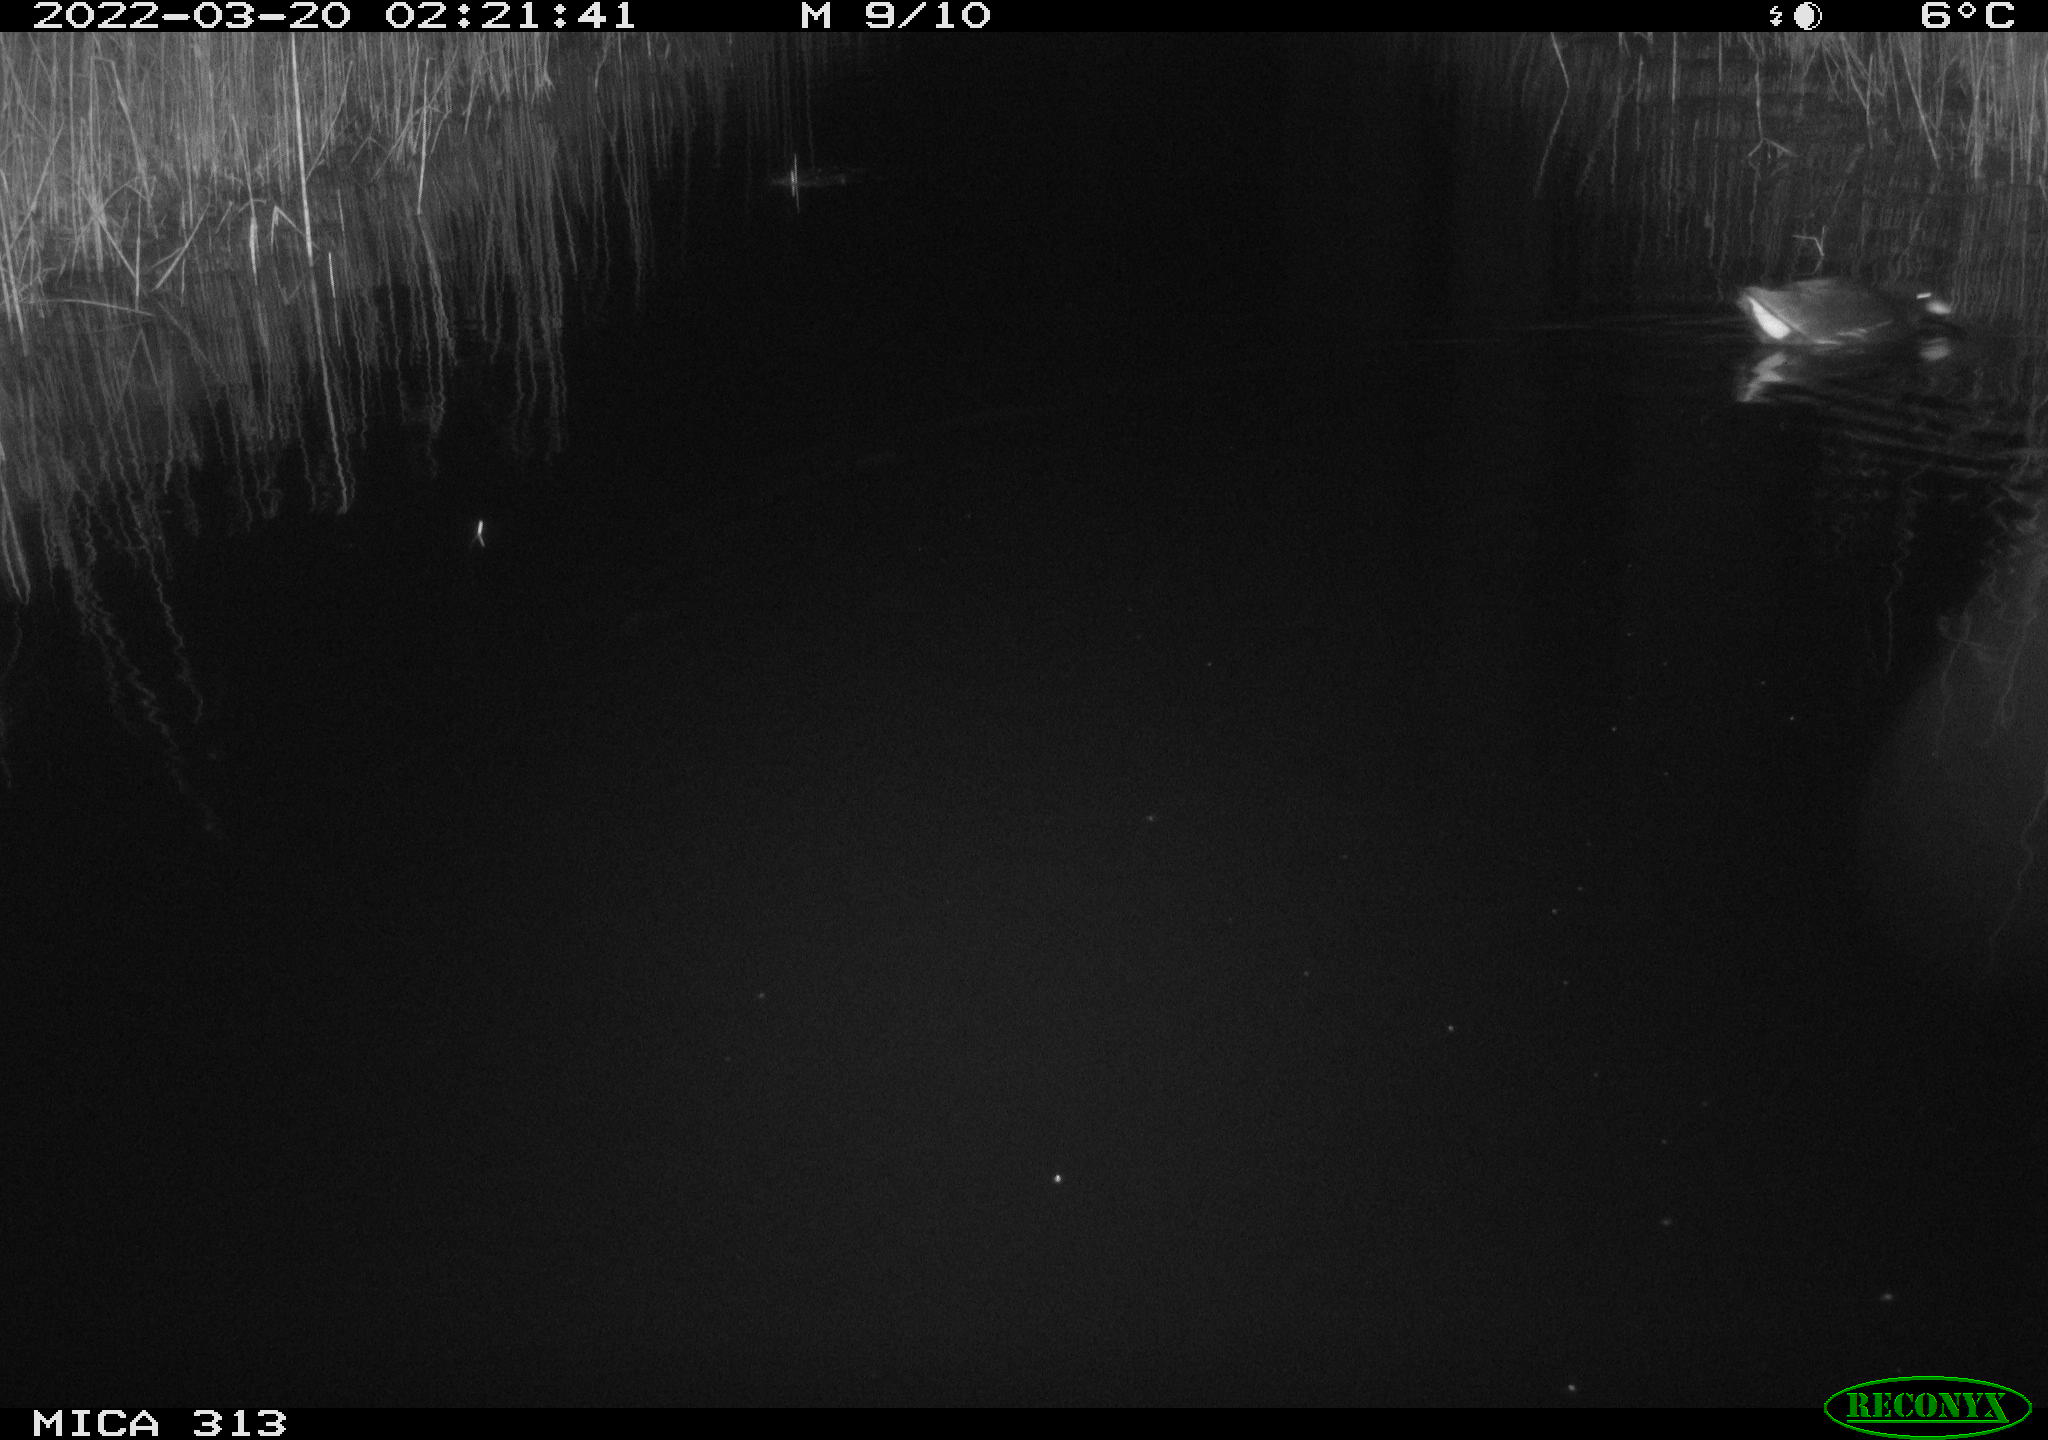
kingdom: Animalia
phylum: Chordata
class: Aves
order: Gruiformes
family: Rallidae
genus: Gallinula
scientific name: Gallinula chloropus
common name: Common moorhen
